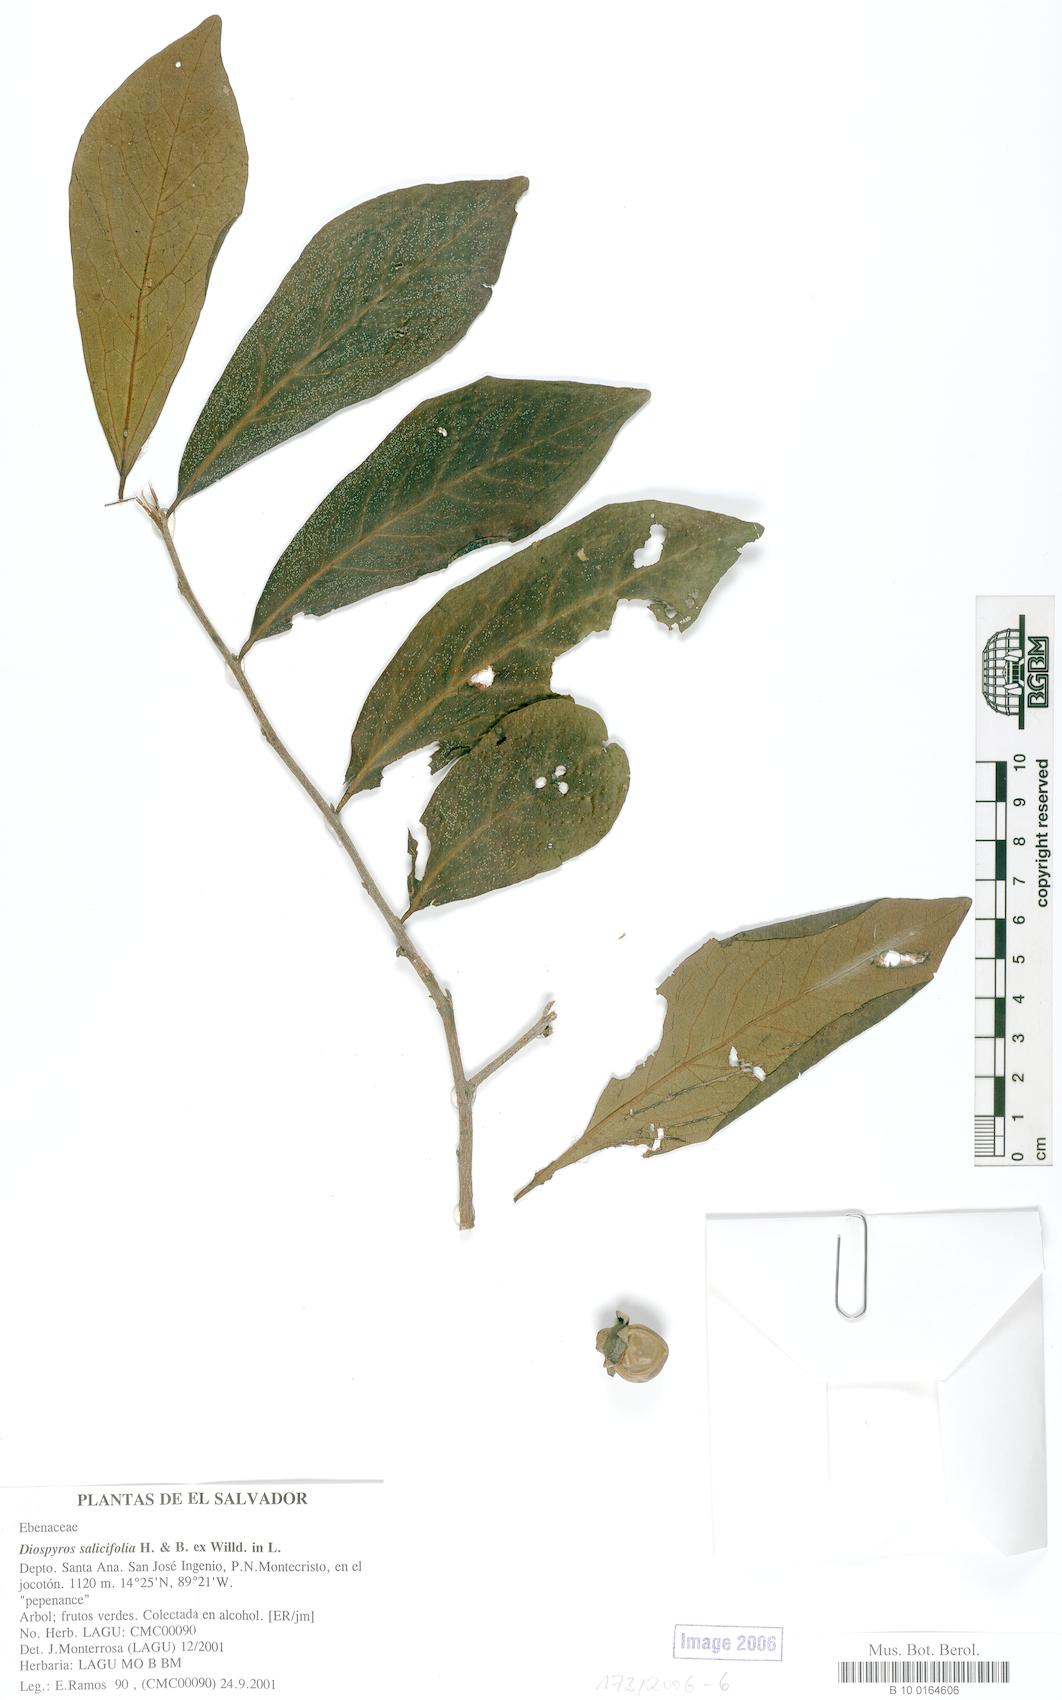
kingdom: Plantae
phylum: Tracheophyta
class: Magnoliopsida
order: Ericales
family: Ebenaceae
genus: Diospyros
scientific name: Diospyros rekoi
